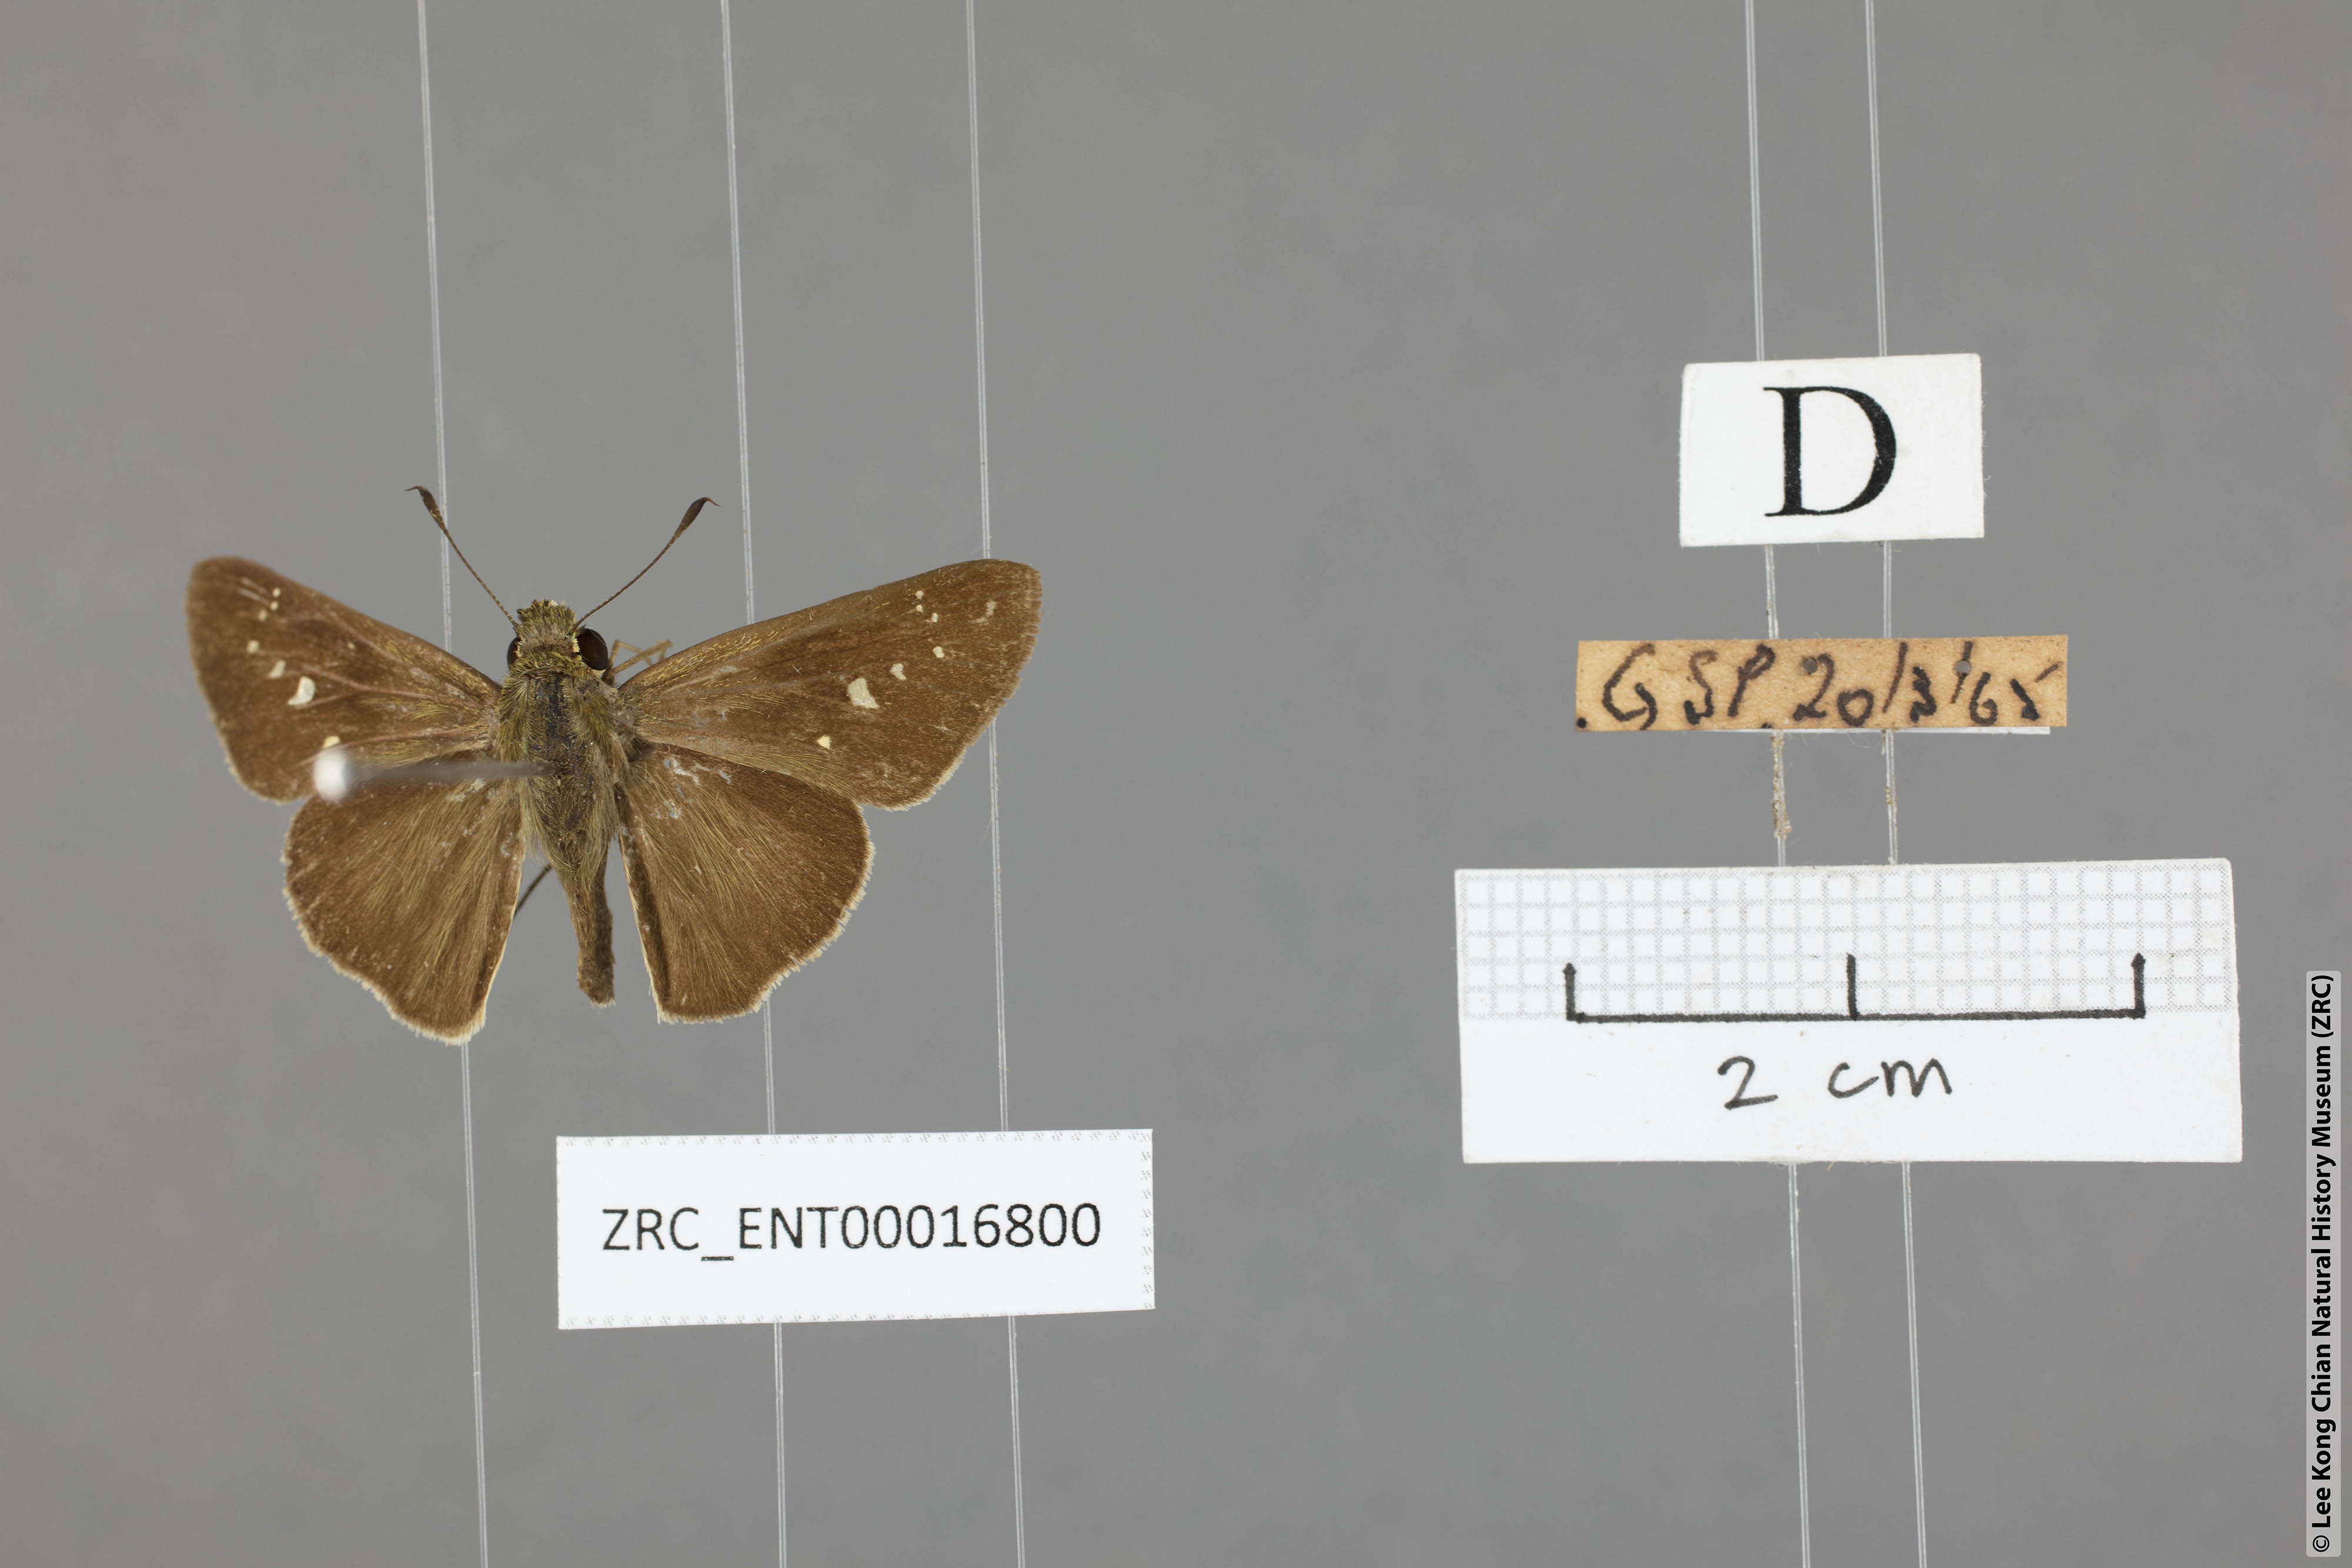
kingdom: Animalia
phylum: Arthropoda
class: Insecta
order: Lepidoptera
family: Hesperiidae
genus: Borbo
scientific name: Borbo cinnara
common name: Formosan swift
